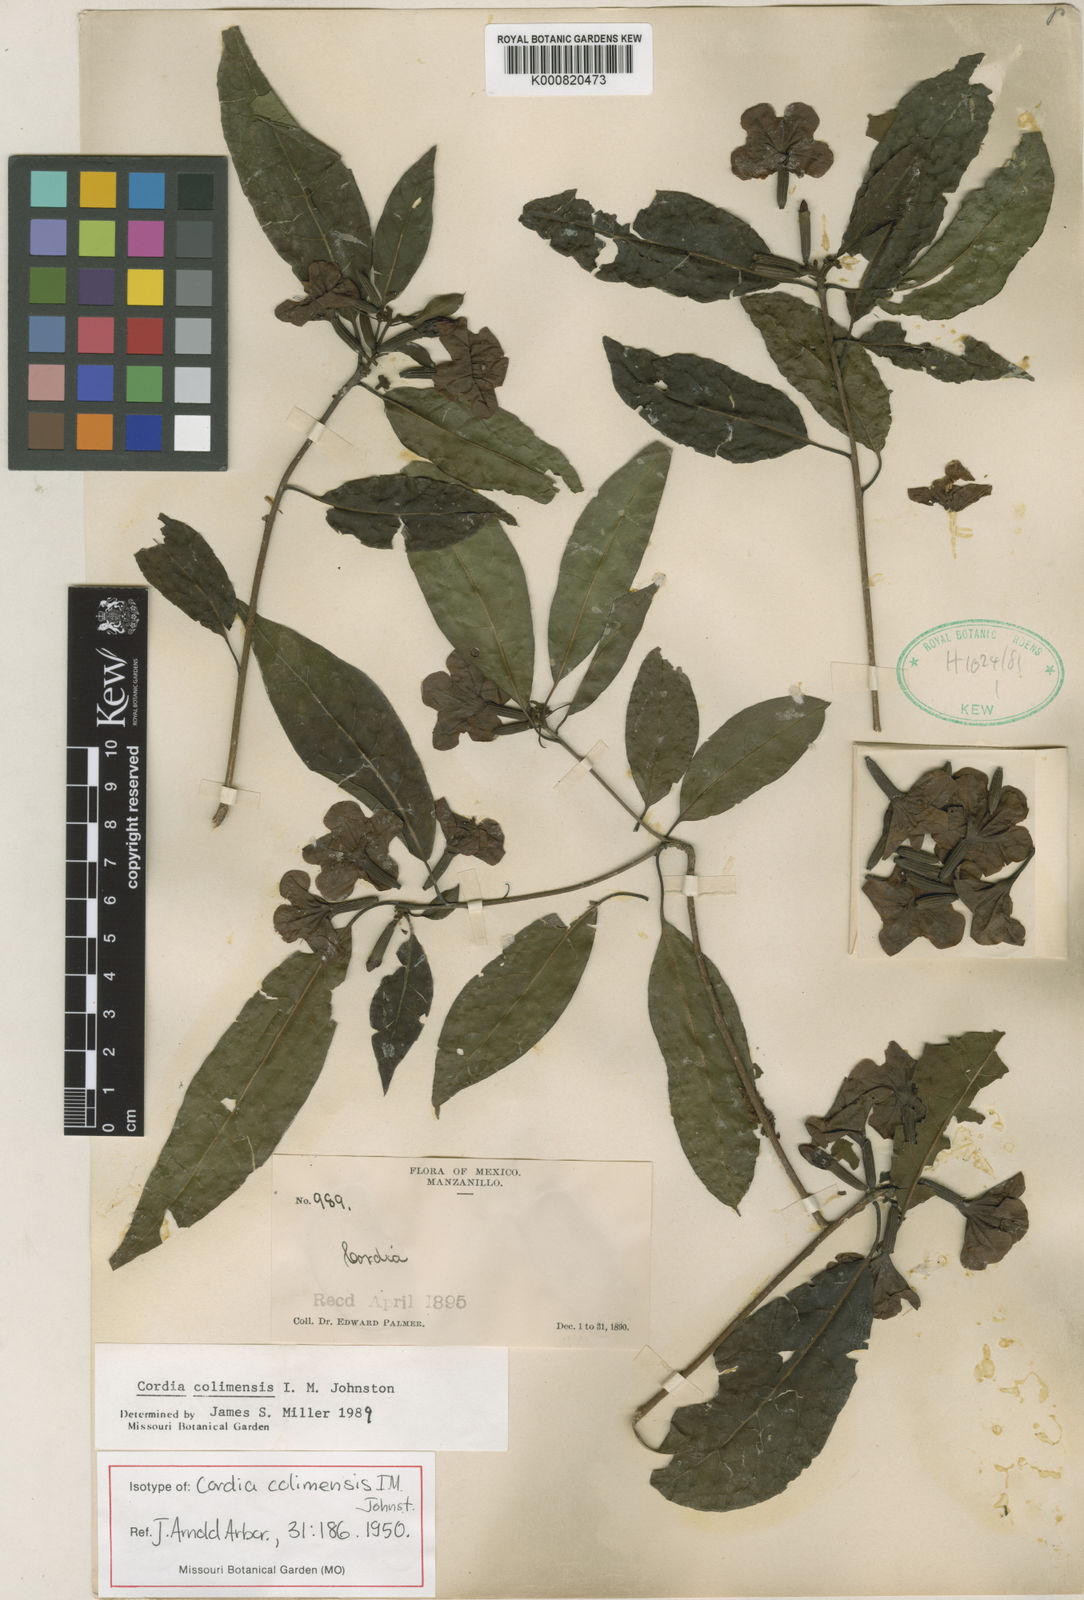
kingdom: Plantae
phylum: Tracheophyta
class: Magnoliopsida
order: Boraginales
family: Cordiaceae
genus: Cordia
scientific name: Cordia colimensis
